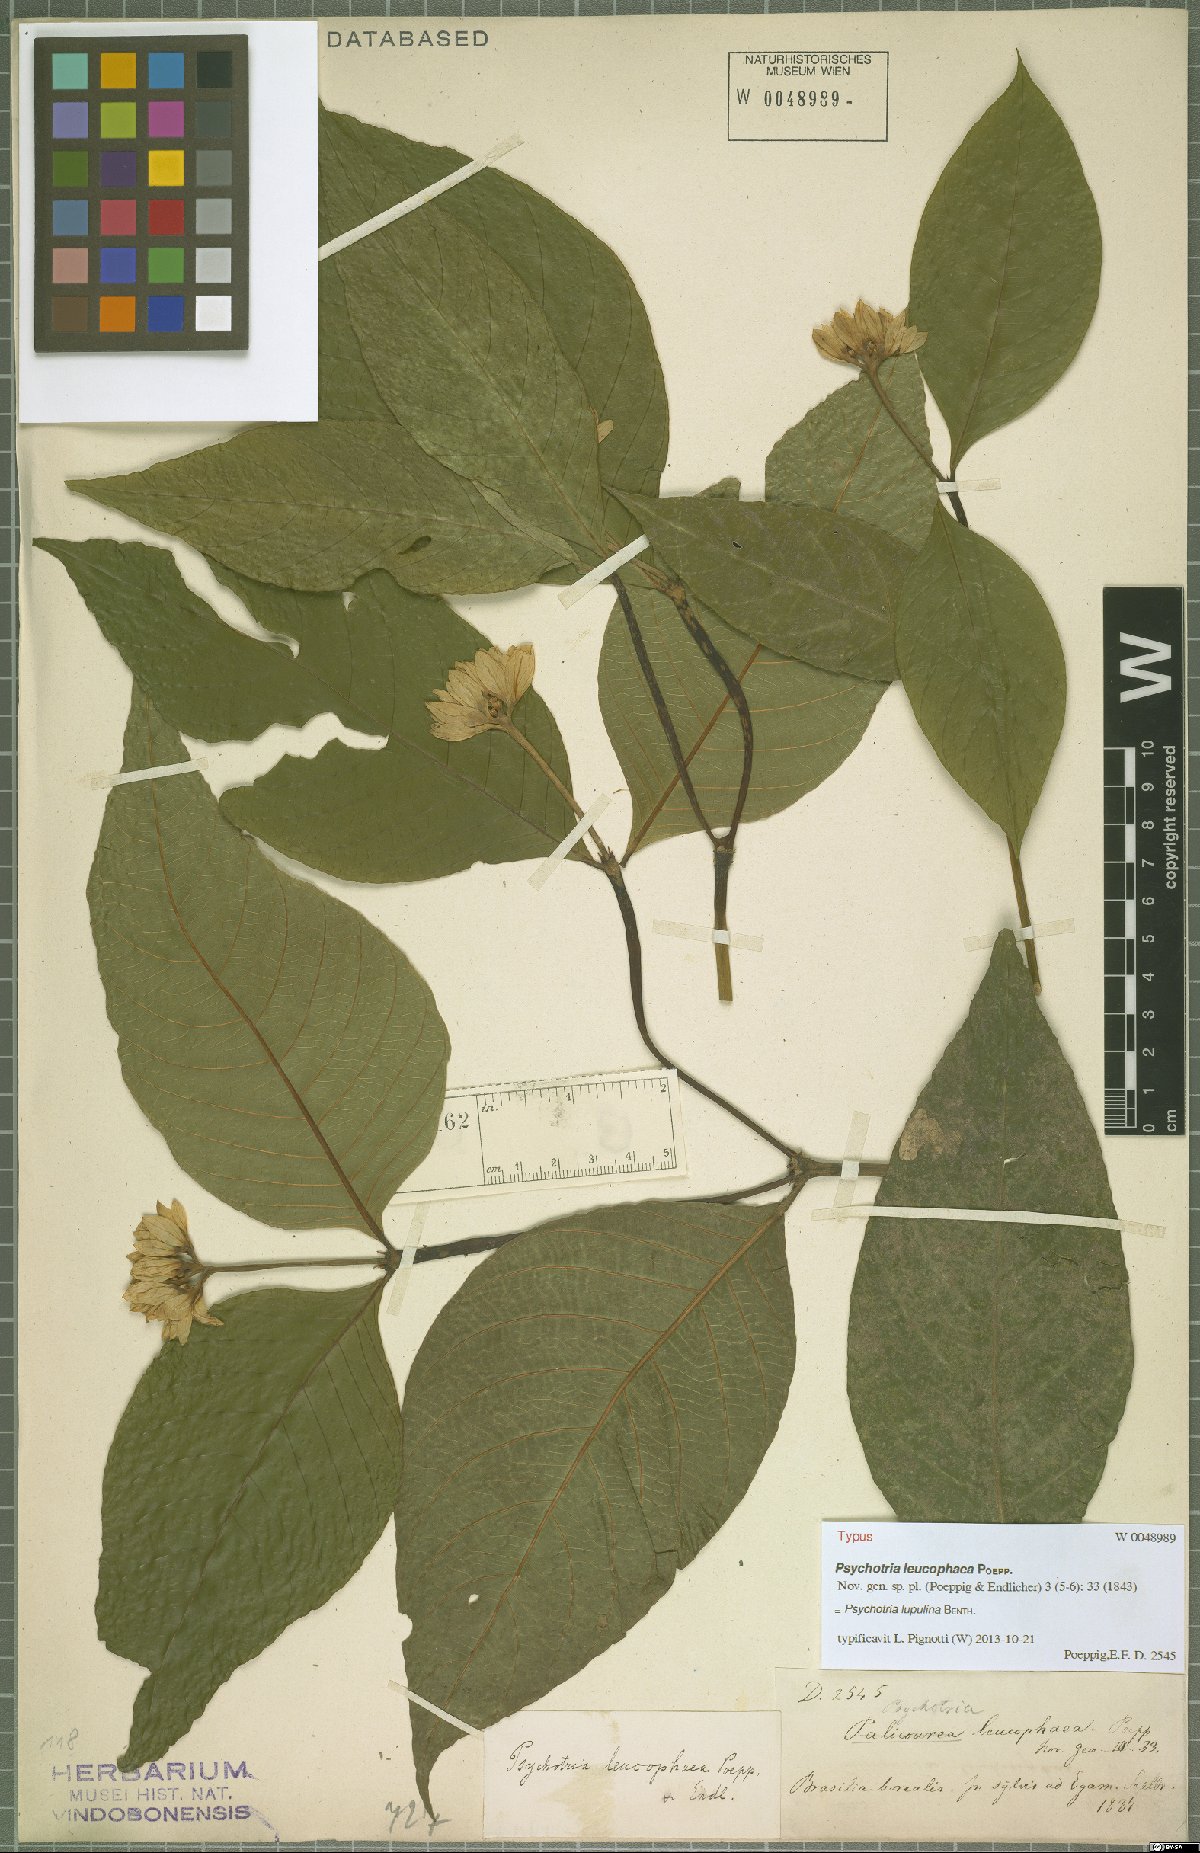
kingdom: Plantae
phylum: Tracheophyta
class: Magnoliopsida
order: Gentianales
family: Rubiaceae
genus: Palicourea
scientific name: Palicourea justiciifolia
